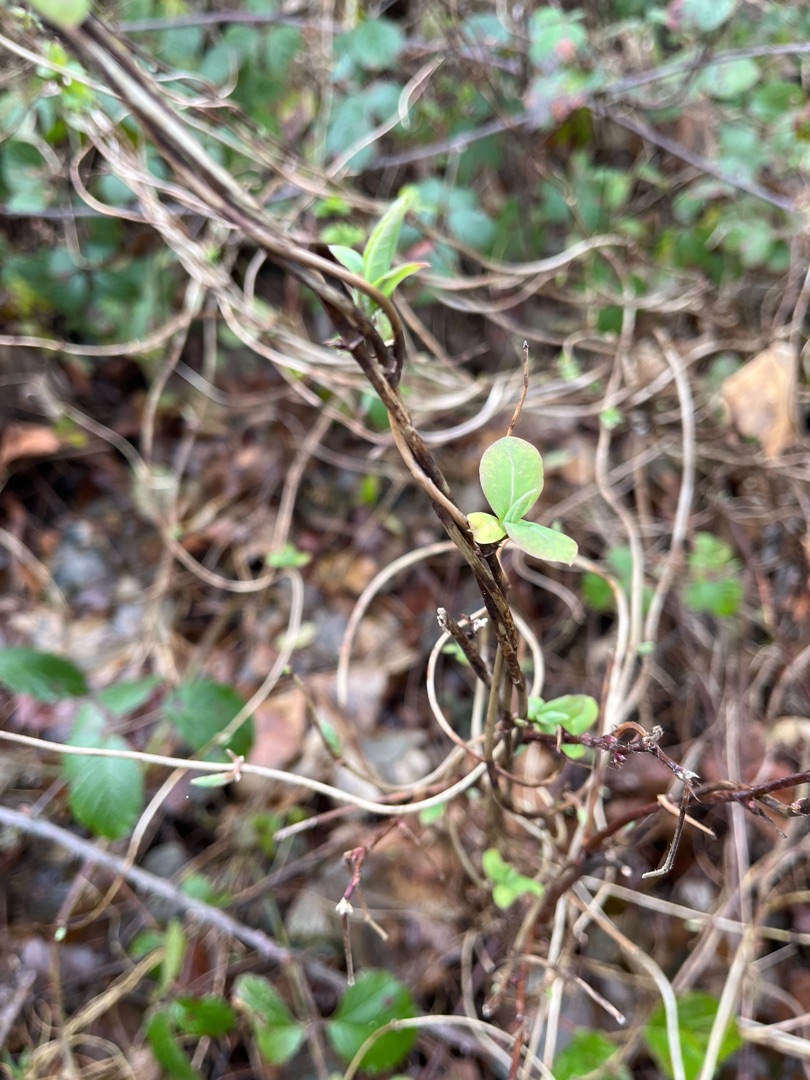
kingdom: Plantae
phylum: Tracheophyta
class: Magnoliopsida
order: Dipsacales
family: Caprifoliaceae
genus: Lonicera
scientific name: Lonicera periclymenum
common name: Almindelig gedeblad
